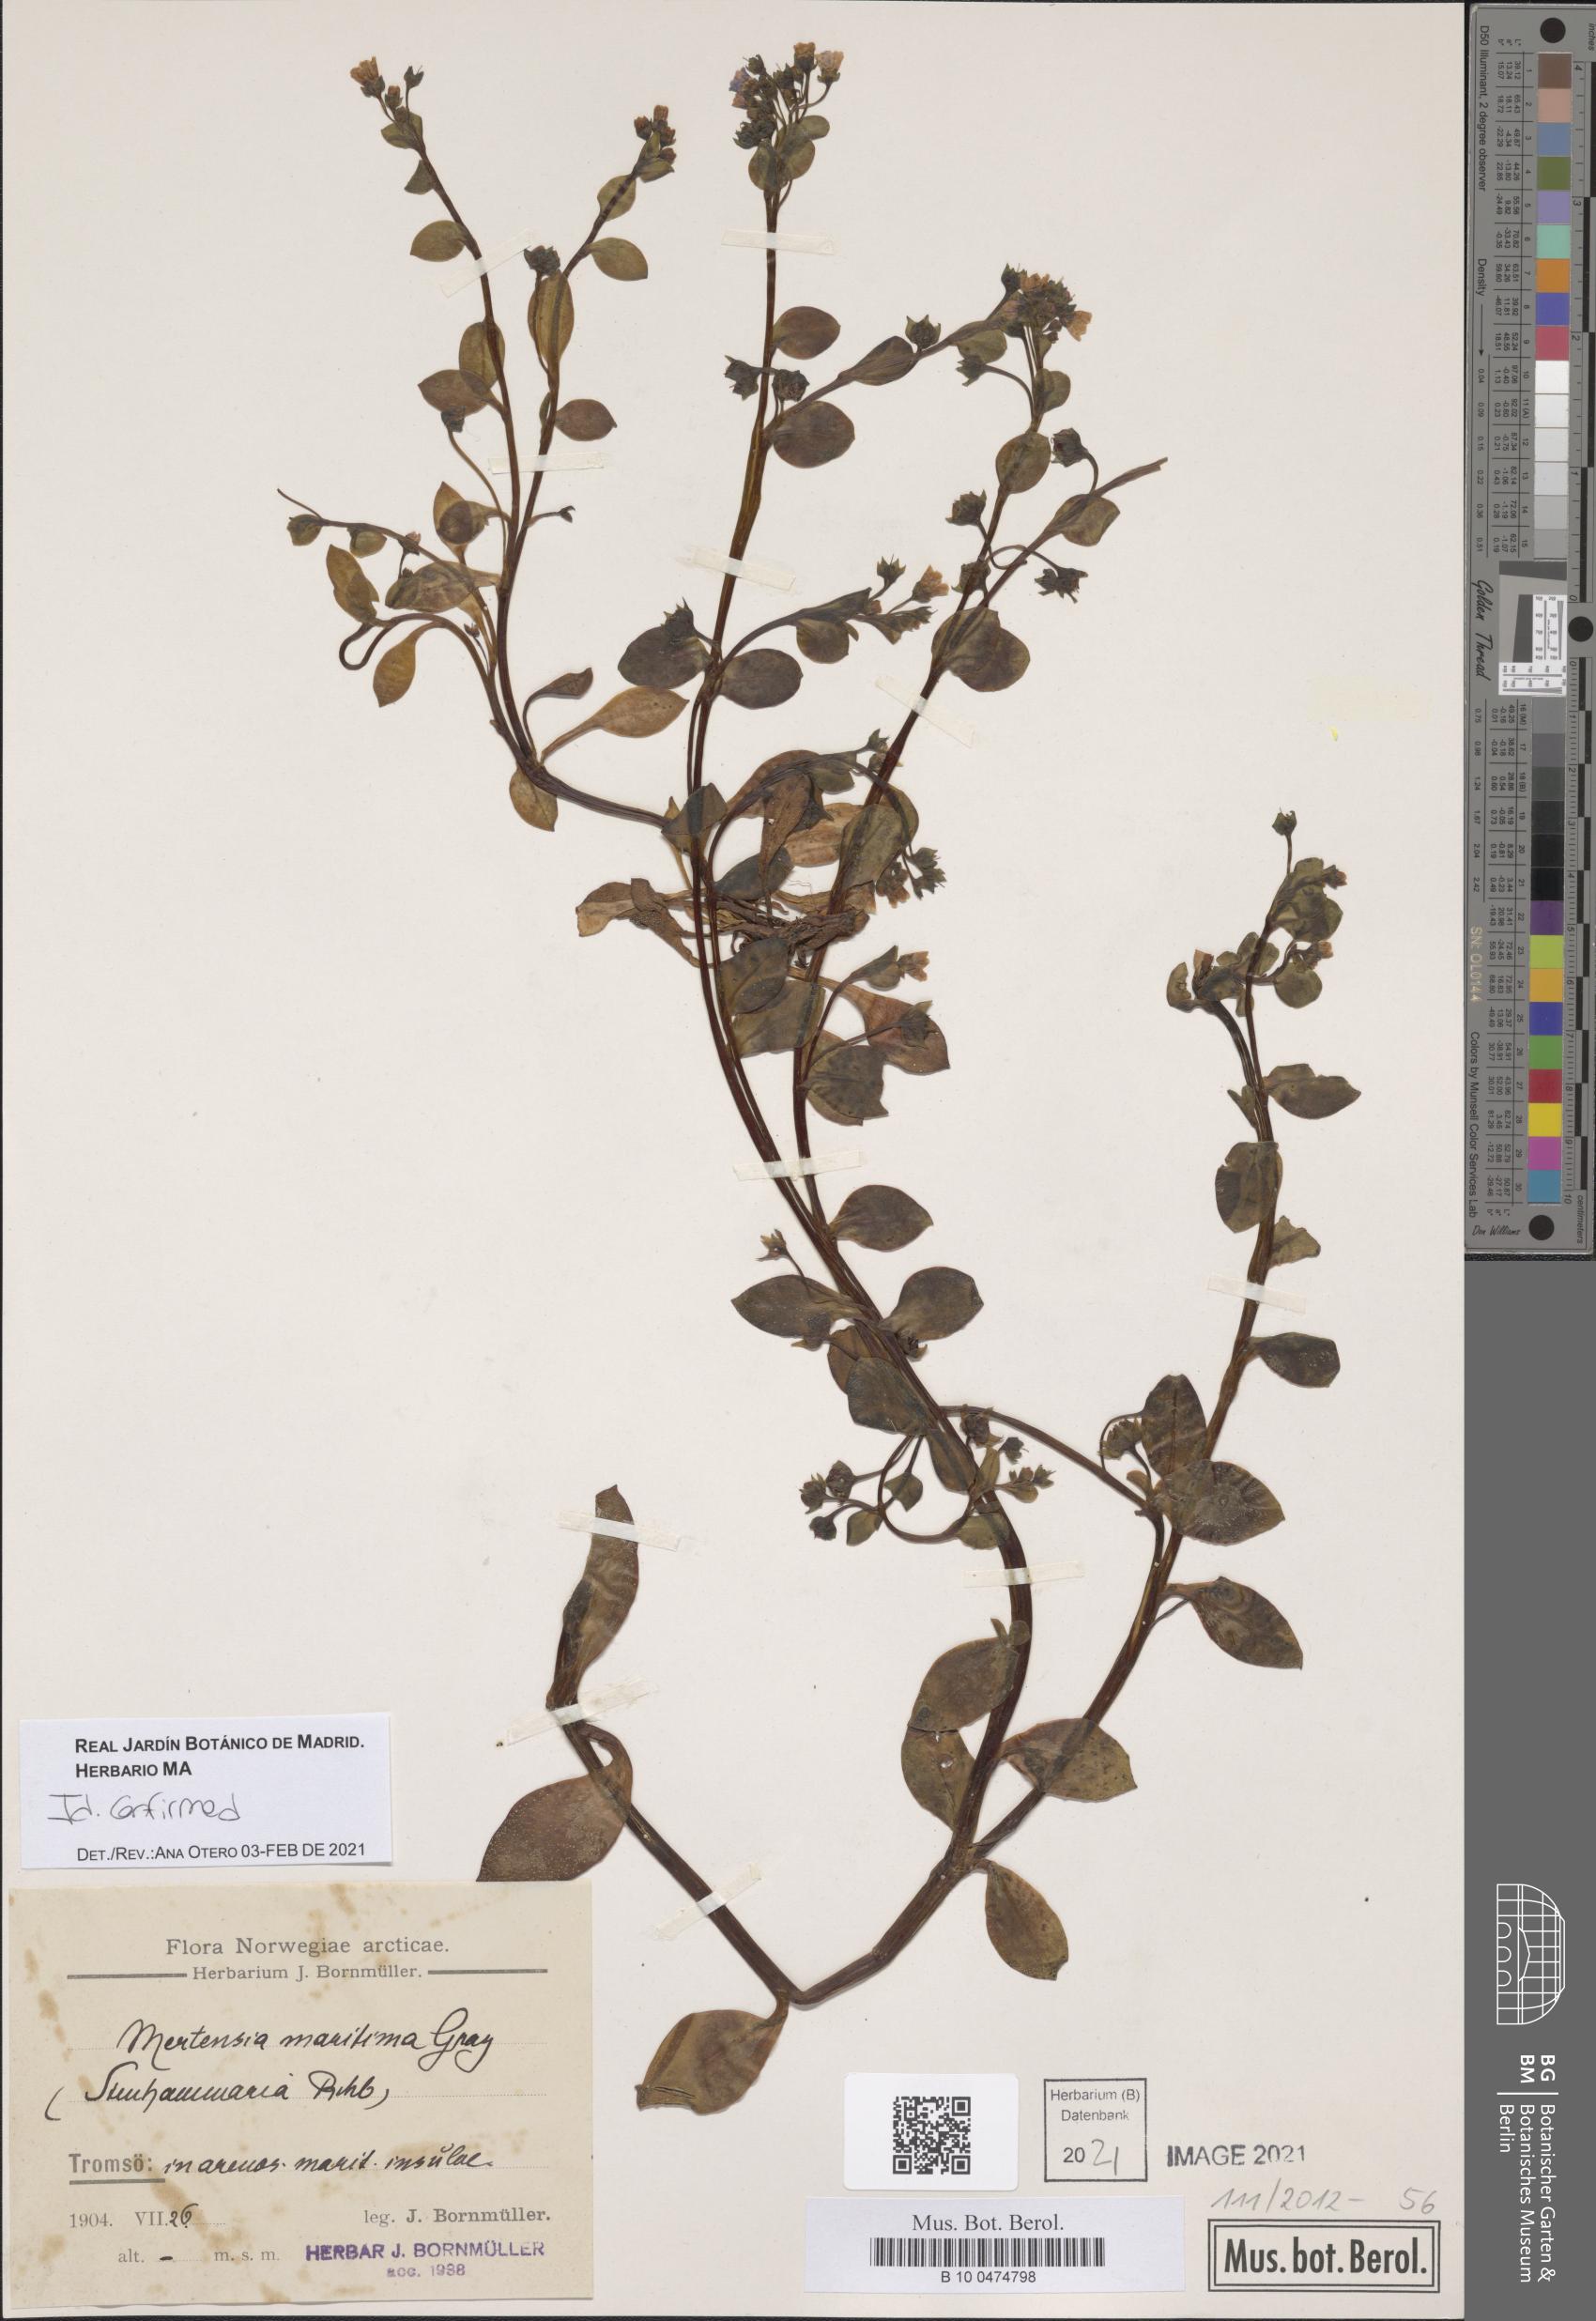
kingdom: Plantae
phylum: Tracheophyta
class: Magnoliopsida
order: Boraginales
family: Boraginaceae
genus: Mertensia
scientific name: Mertensia maritima
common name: Oysterplant
